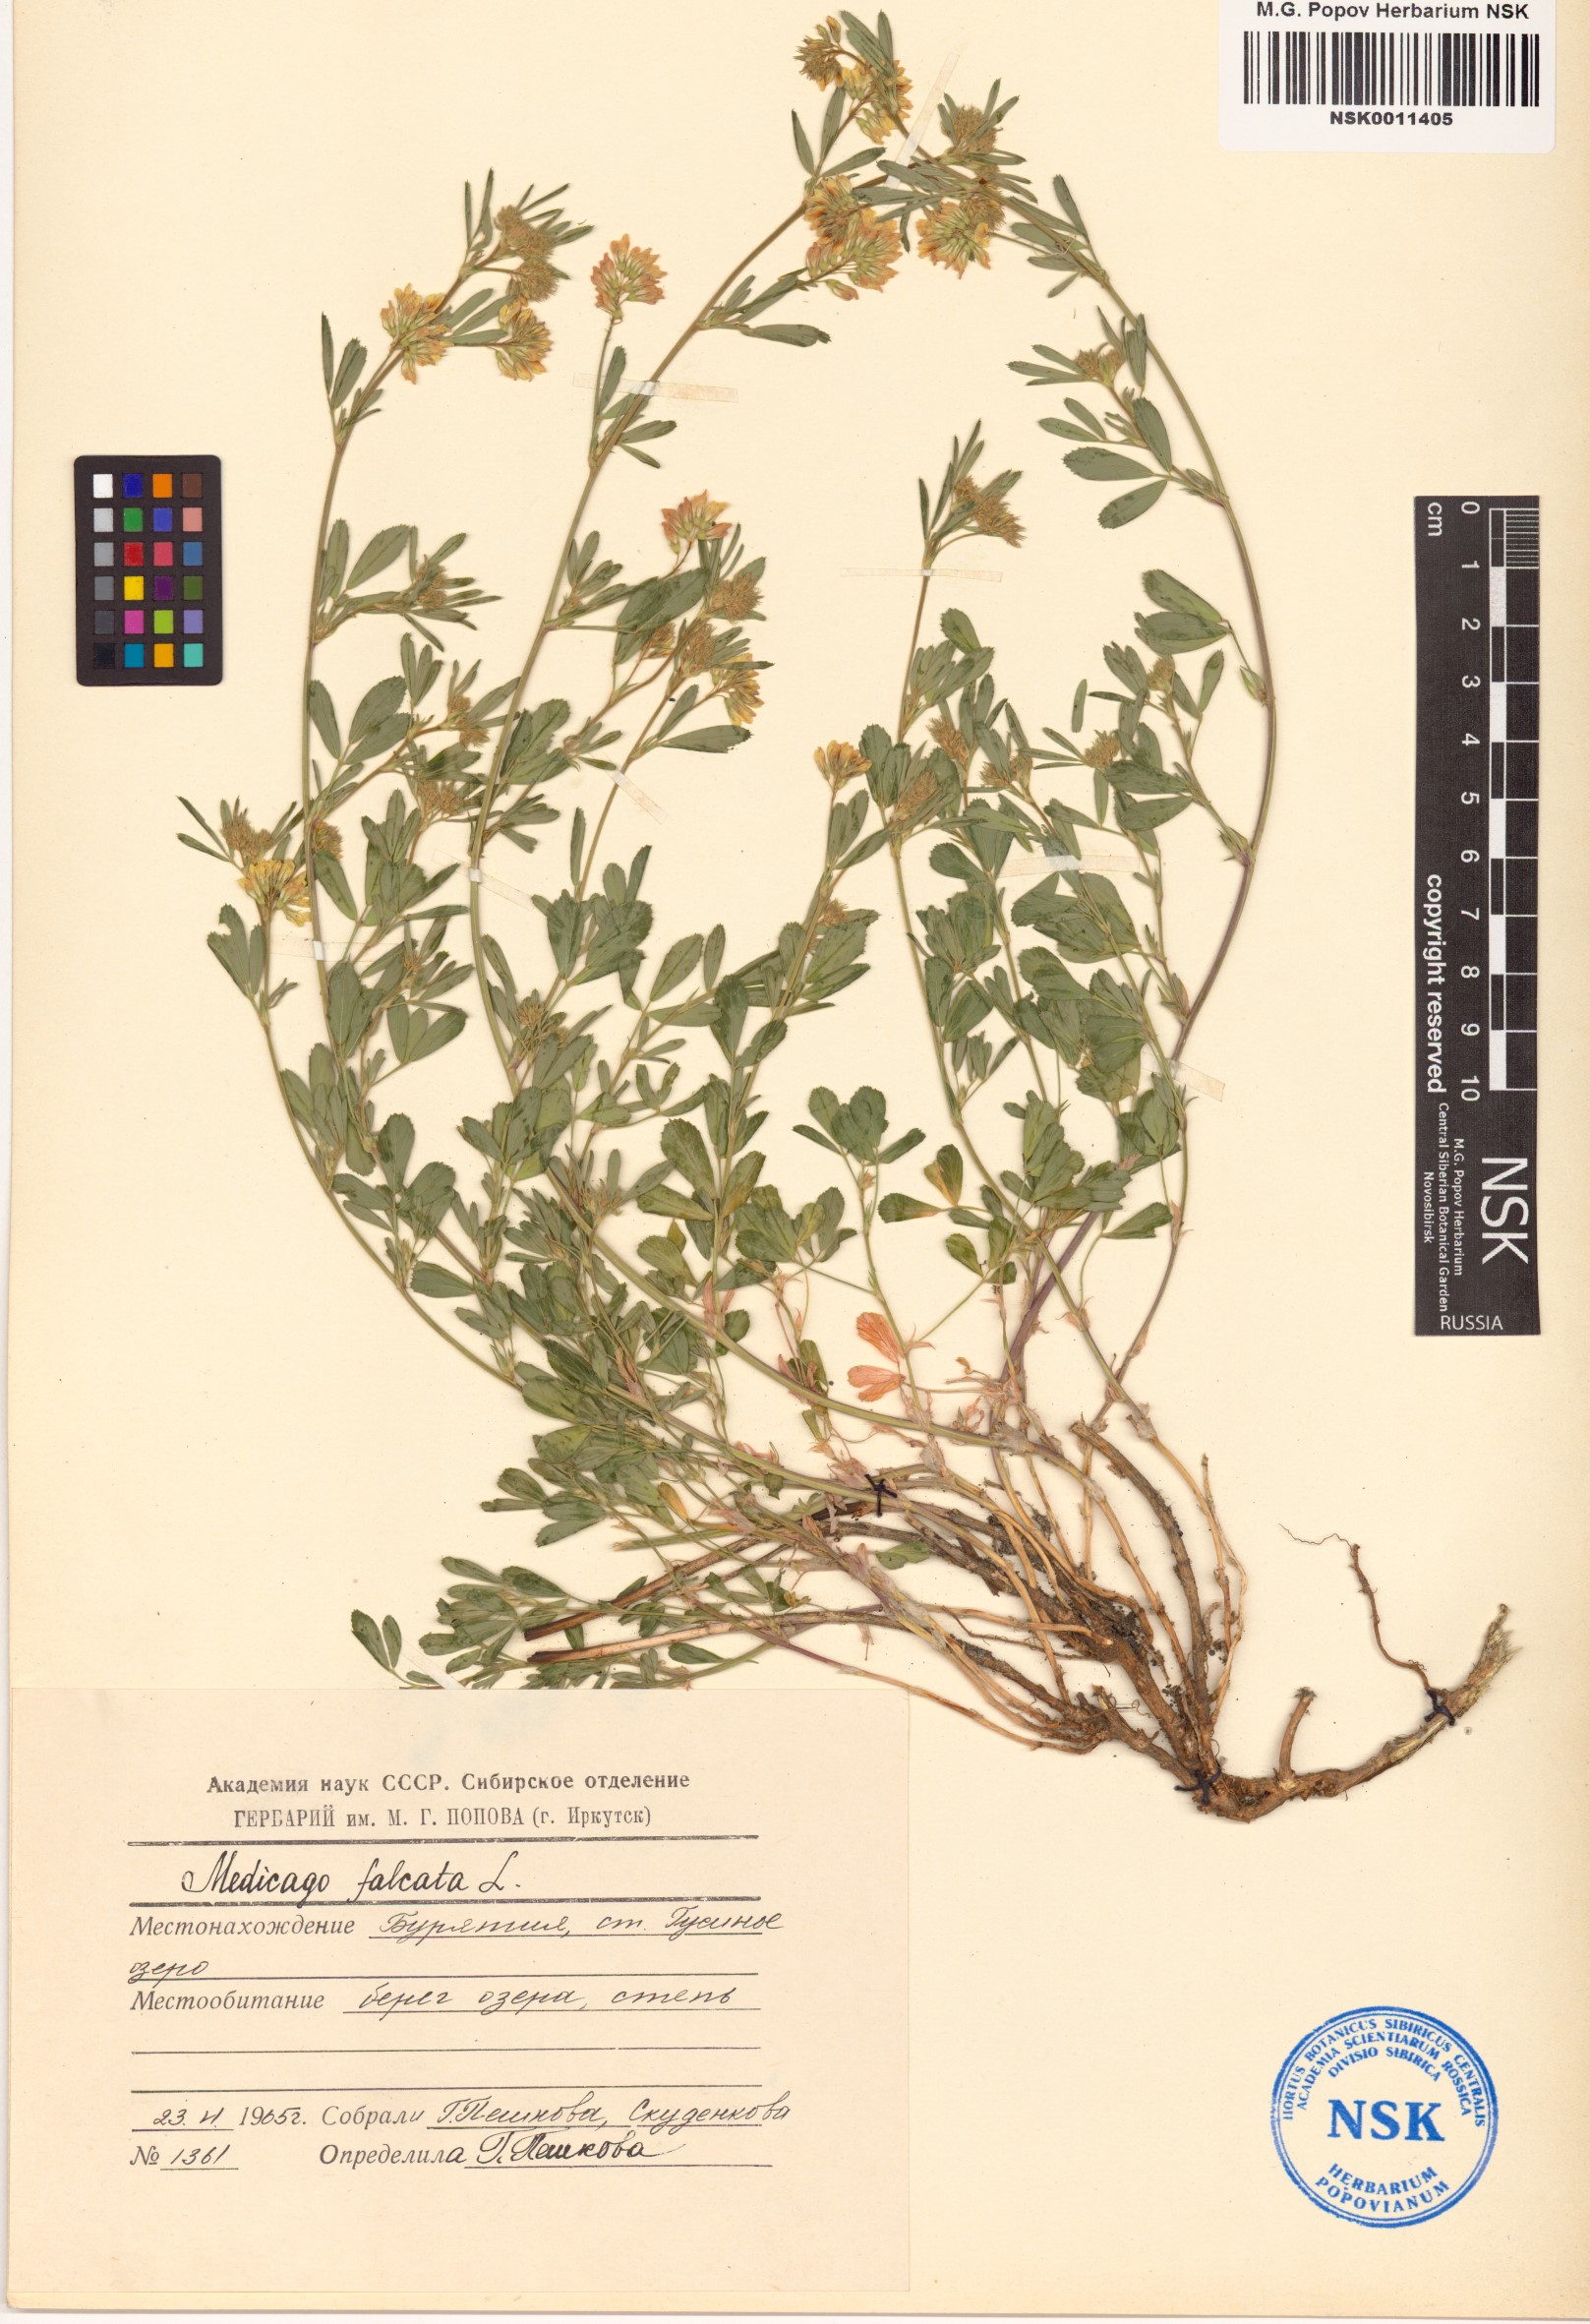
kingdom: Plantae
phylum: Tracheophyta
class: Magnoliopsida
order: Fabales
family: Fabaceae
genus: Medicago
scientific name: Medicago falcata
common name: Sickle medick
